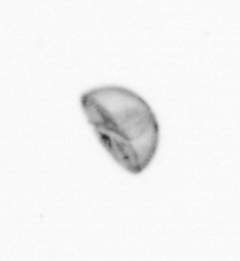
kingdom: Chromista
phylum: Ochrophyta
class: Bacillariophyceae
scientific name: Bacillariophyceae
